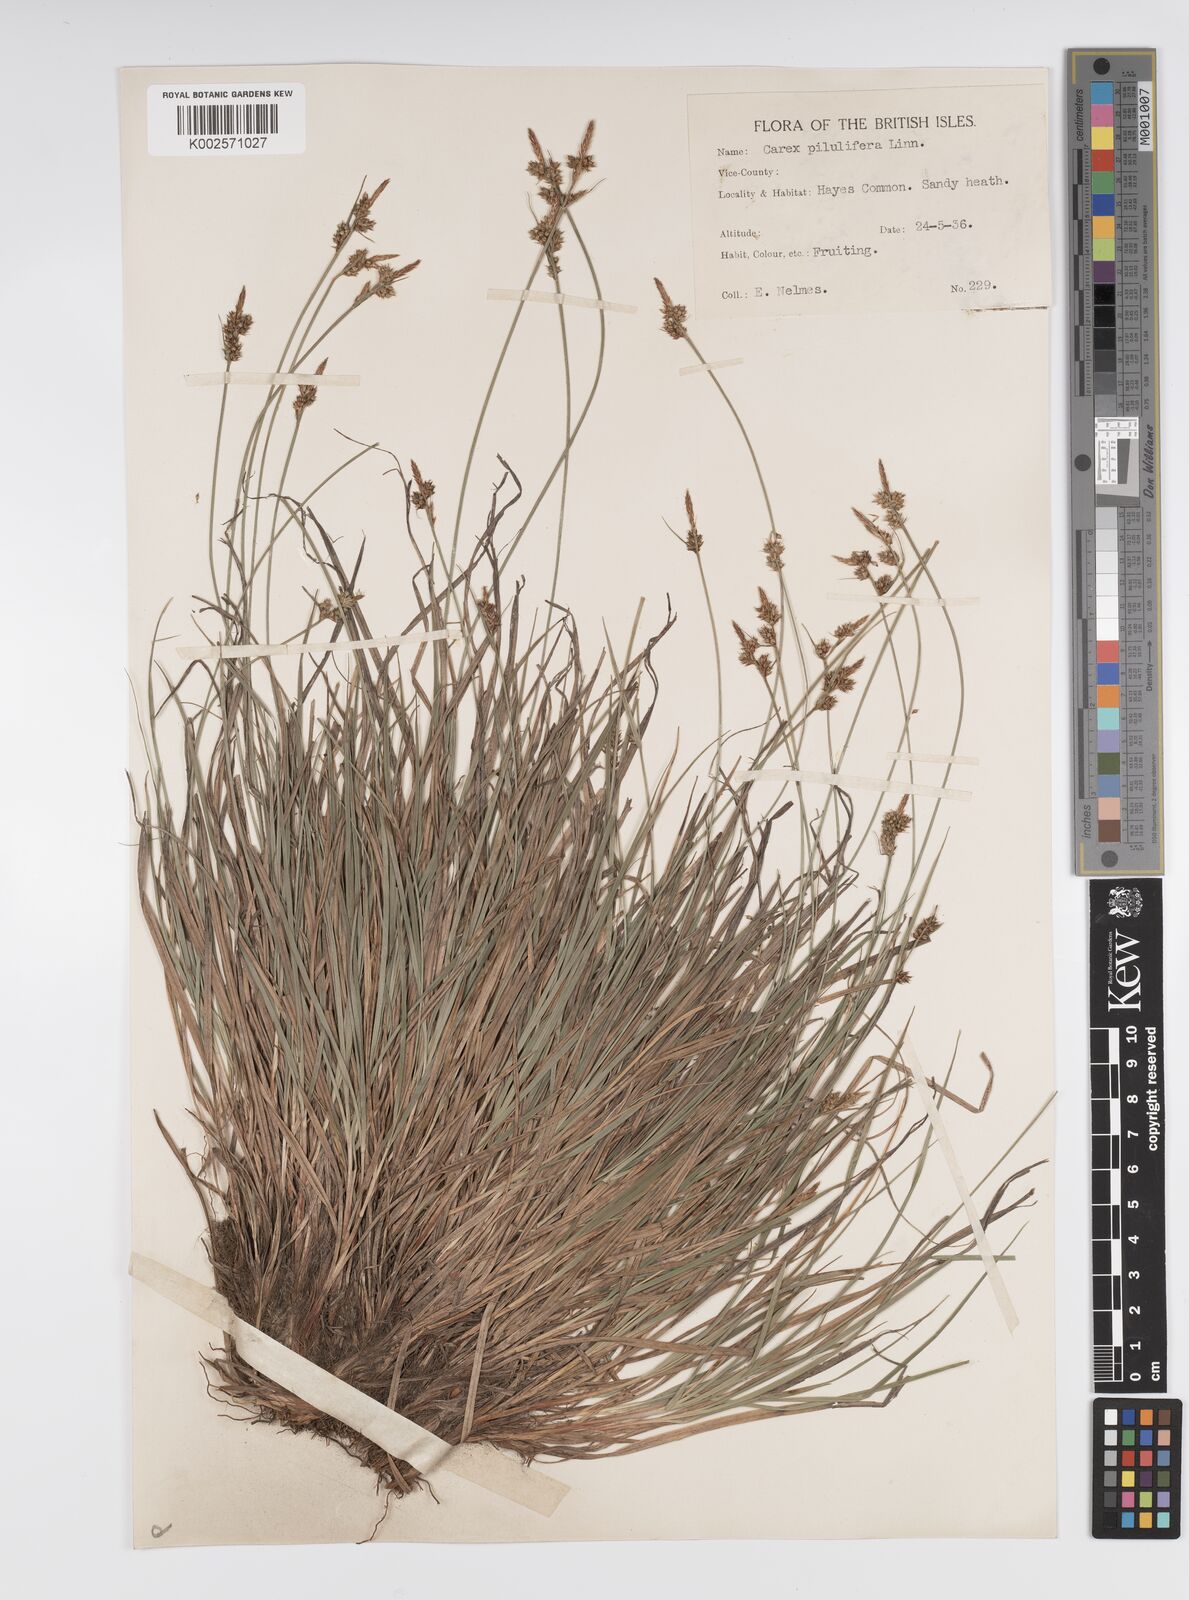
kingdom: Plantae
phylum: Tracheophyta
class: Liliopsida
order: Poales
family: Cyperaceae
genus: Carex
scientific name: Carex pilulifera
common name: Pill sedge
